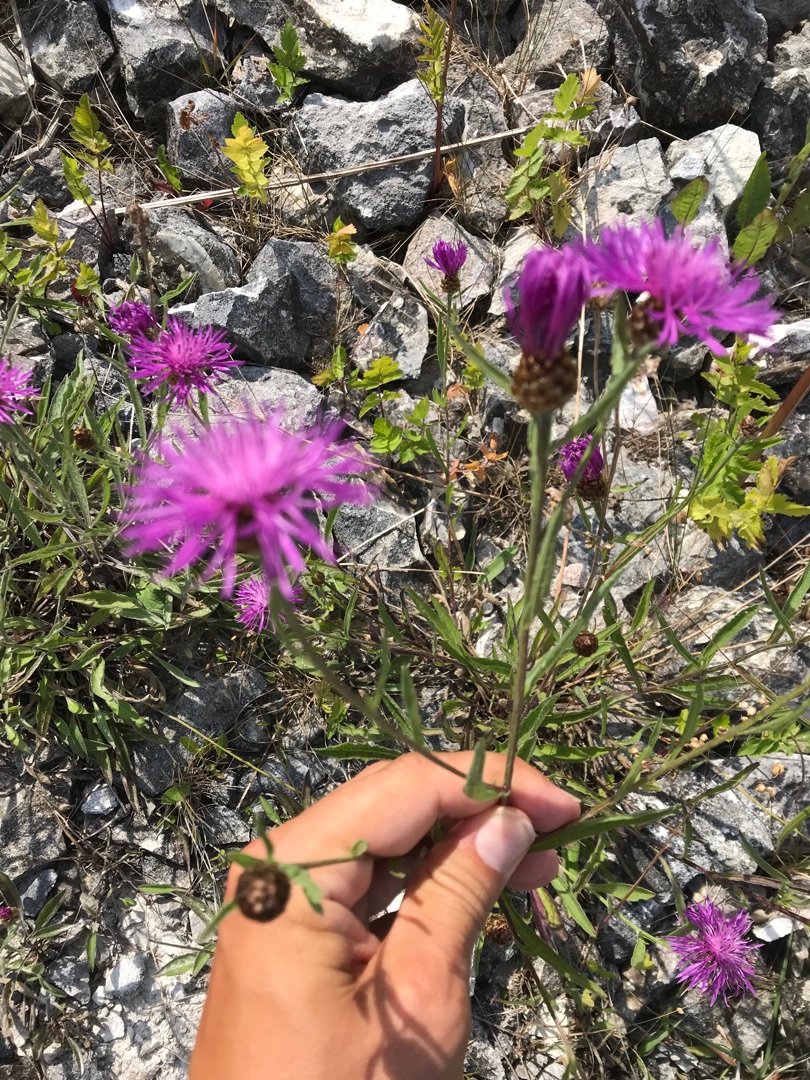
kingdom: Plantae
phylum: Tracheophyta
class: Magnoliopsida
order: Asterales
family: Asteraceae
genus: Centaurea
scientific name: Centaurea jacea
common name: Almindelig knopurt
